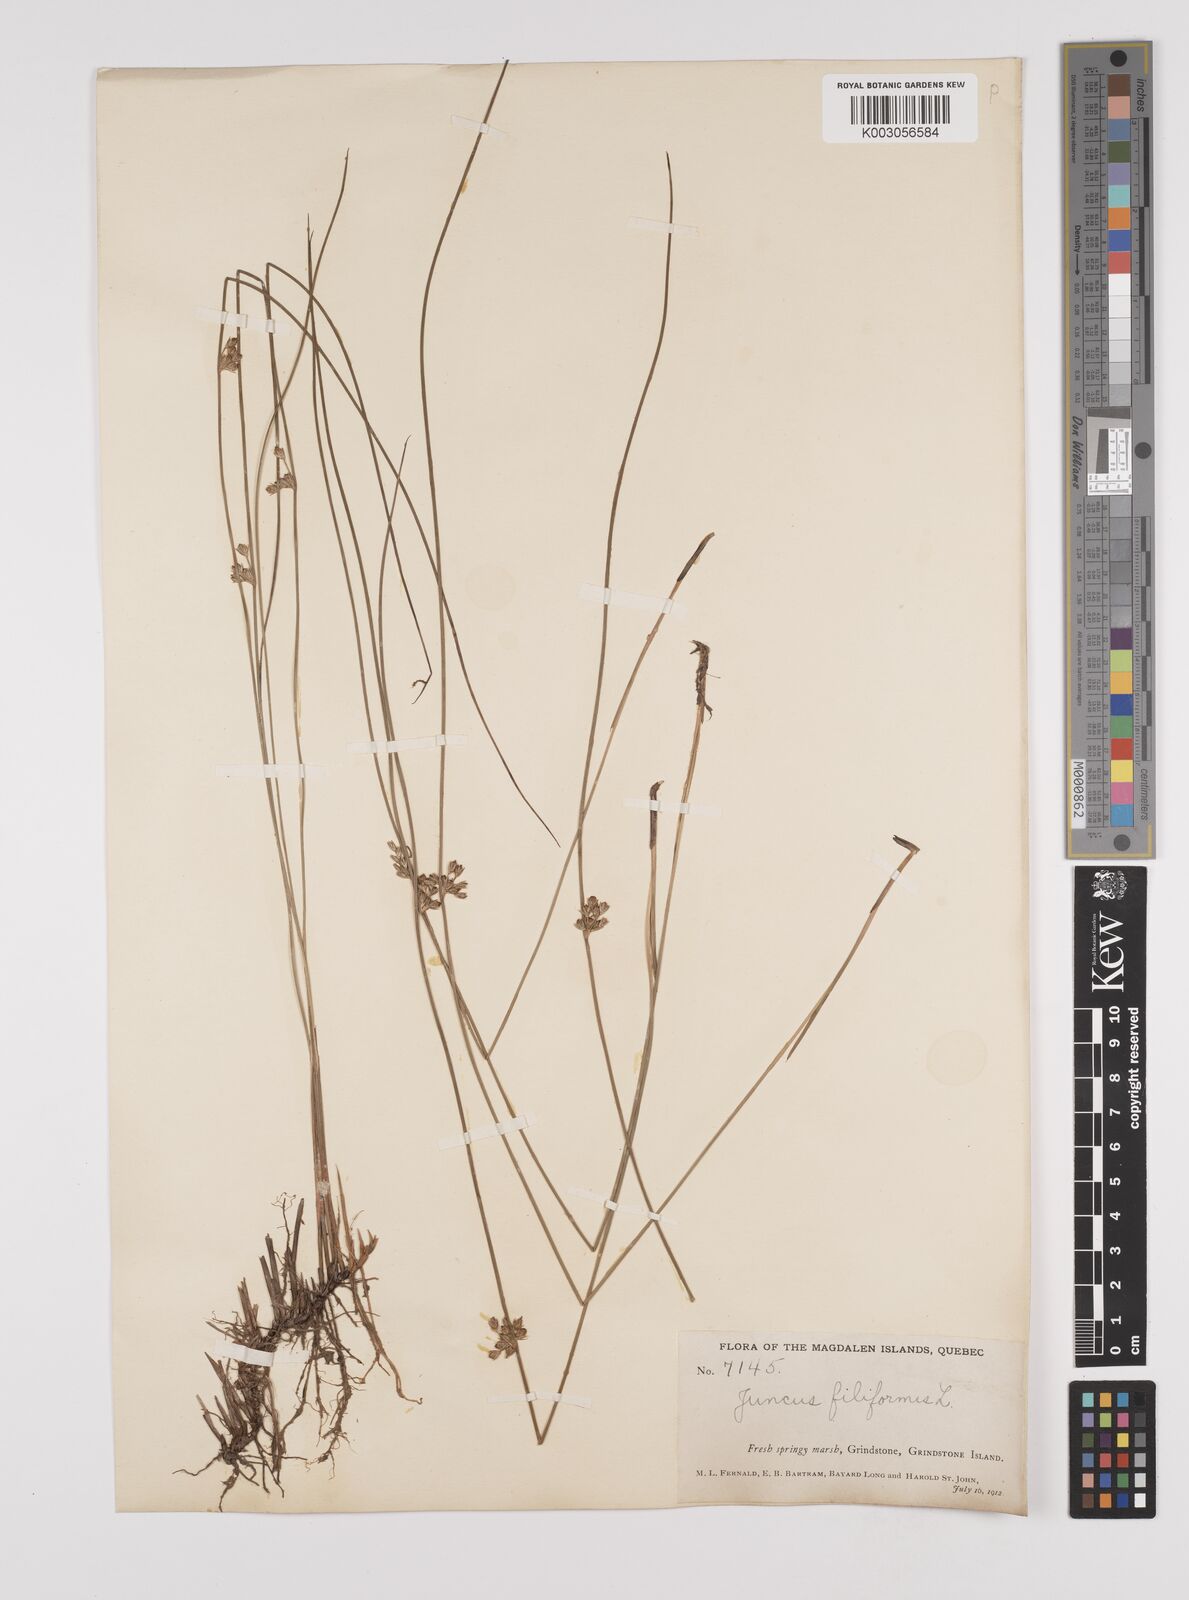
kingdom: Plantae
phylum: Tracheophyta
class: Liliopsida
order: Poales
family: Juncaceae
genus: Juncus
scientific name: Juncus filiformis
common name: Thread rush
